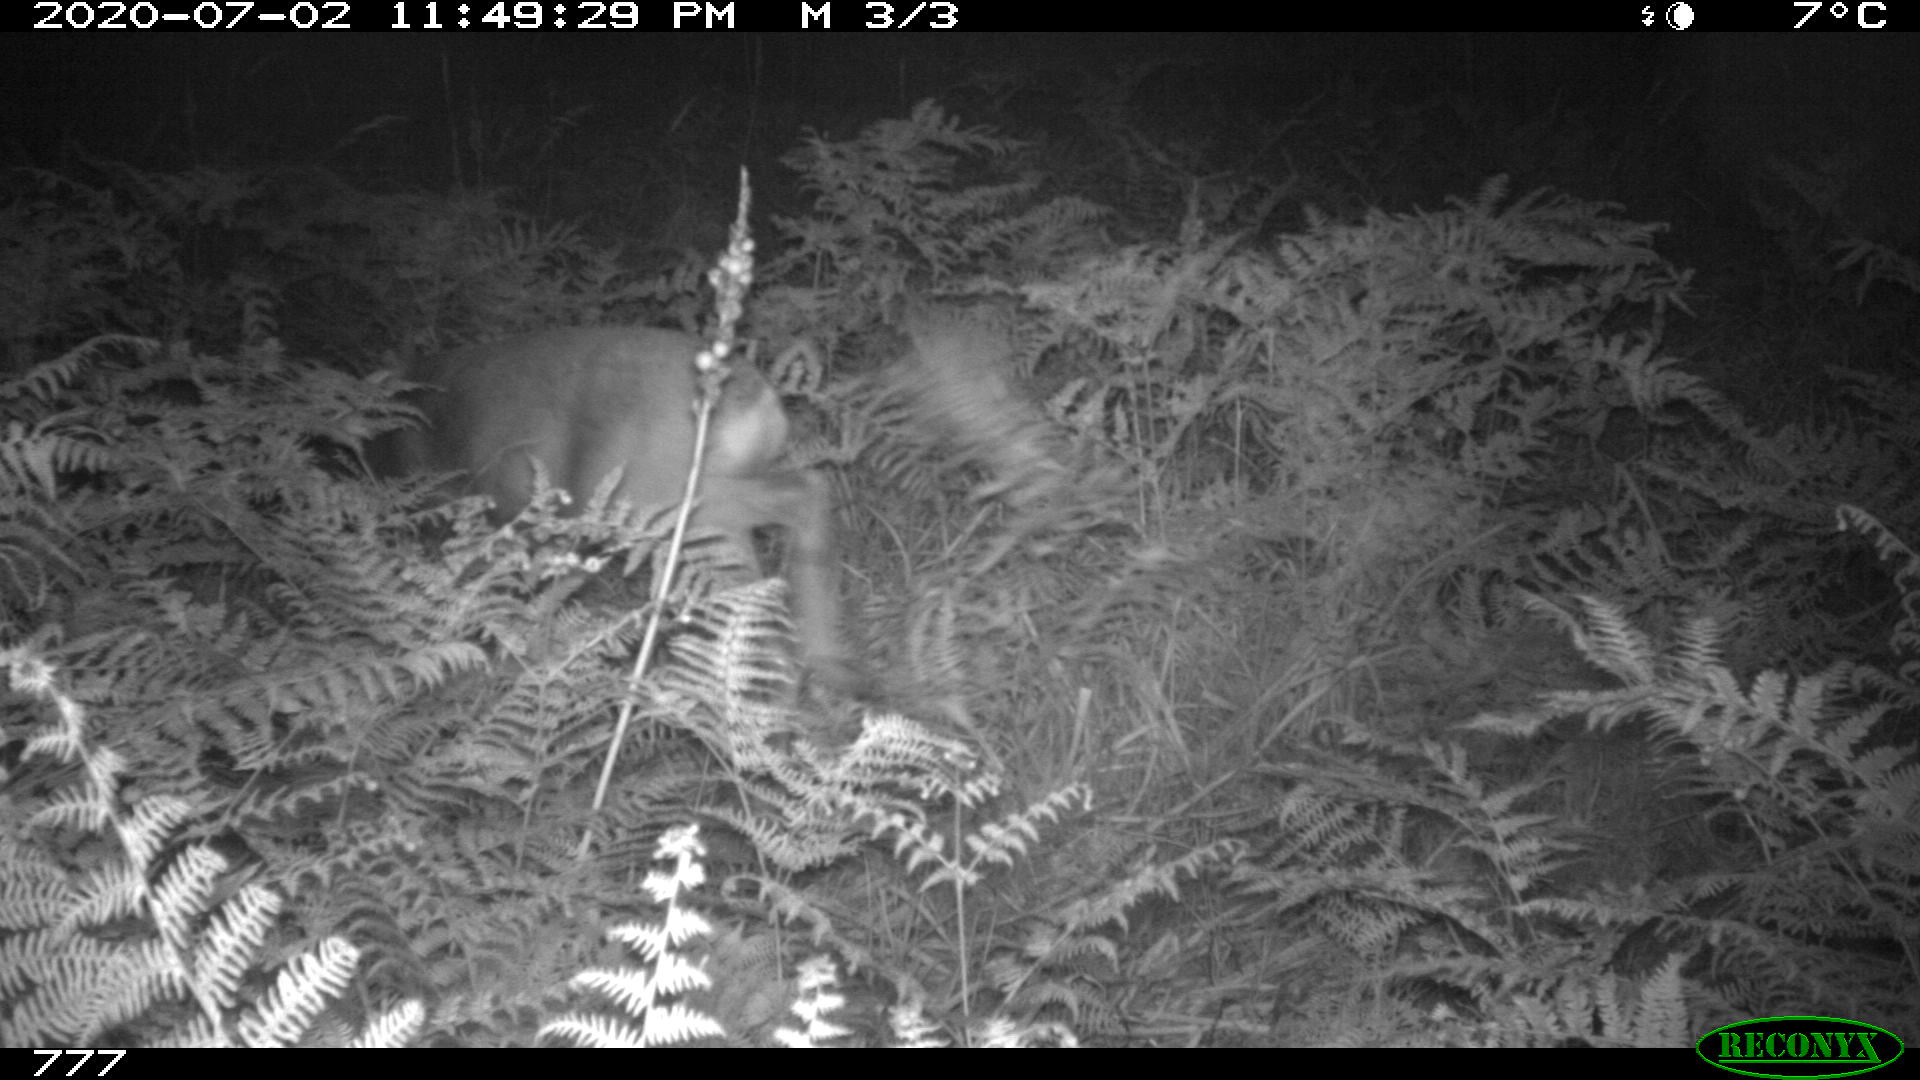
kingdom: Animalia
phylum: Chordata
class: Mammalia
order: Artiodactyla
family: Cervidae
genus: Capreolus
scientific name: Capreolus capreolus
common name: Western roe deer
